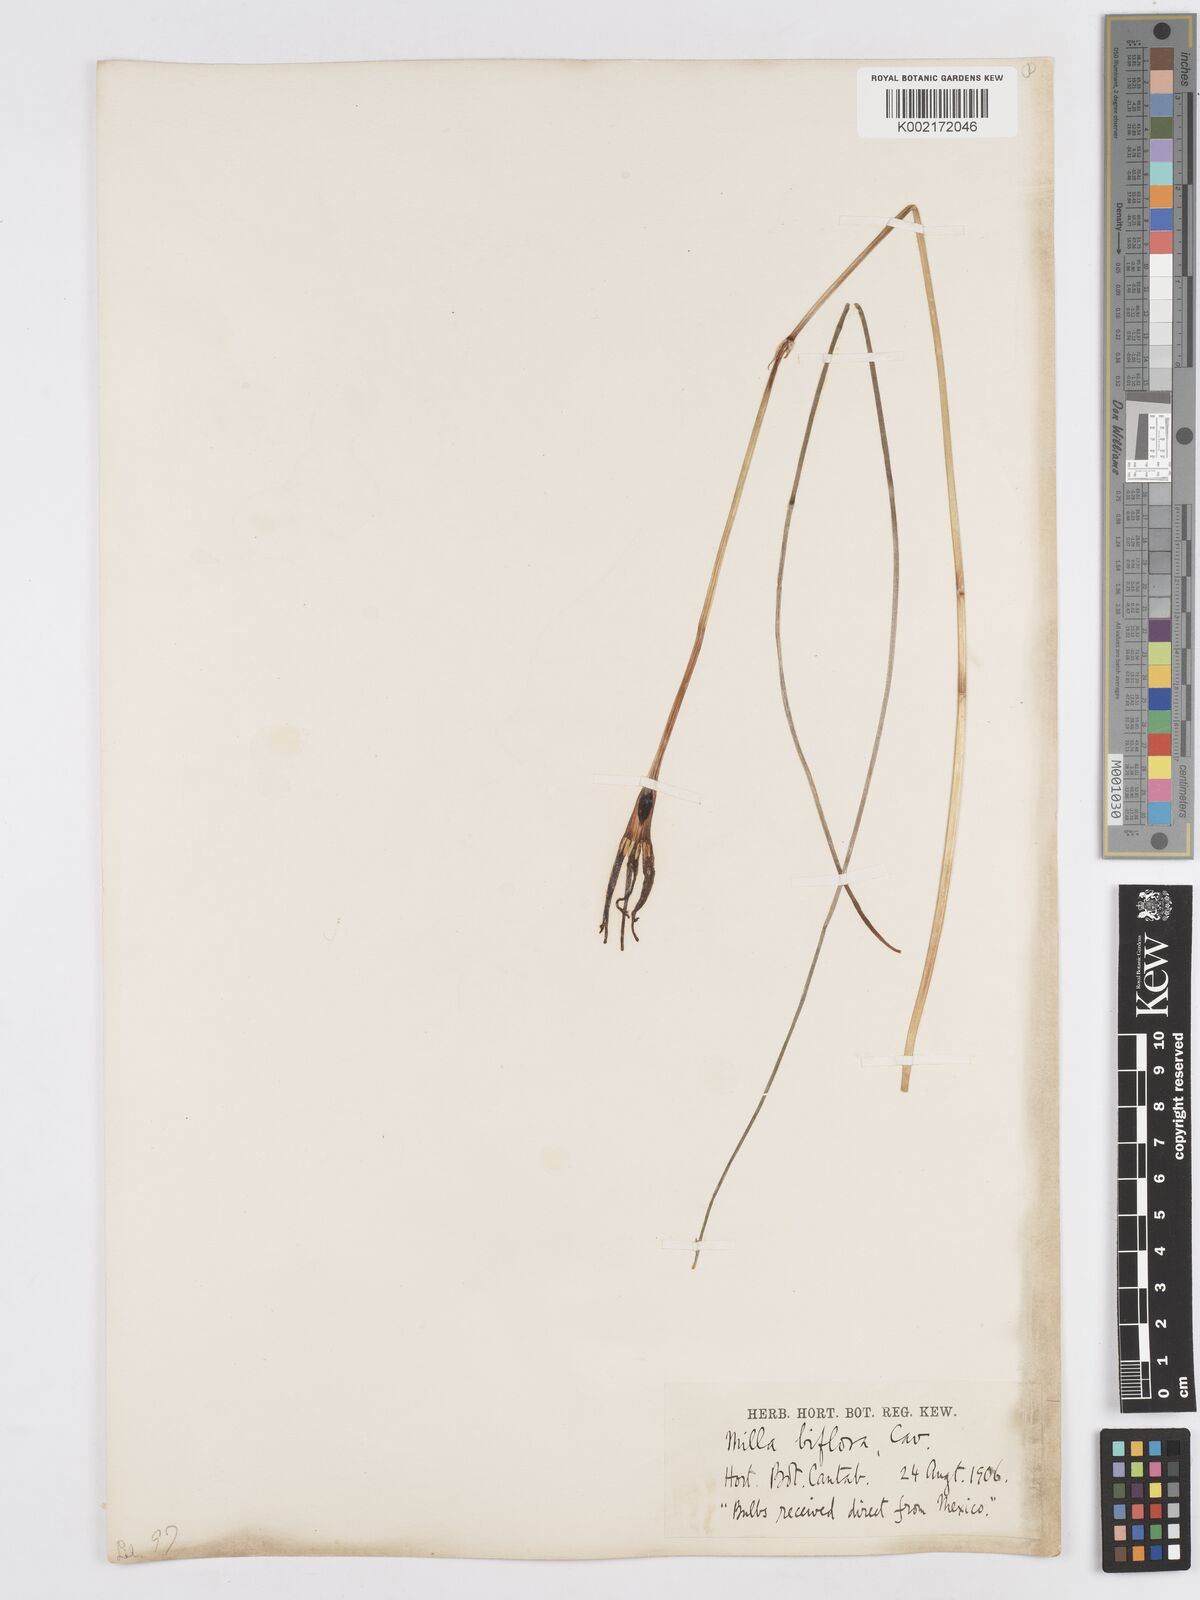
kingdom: Plantae
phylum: Tracheophyta
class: Liliopsida
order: Asparagales
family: Asparagaceae
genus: Milla
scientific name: Milla biflora
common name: Mexican-star
